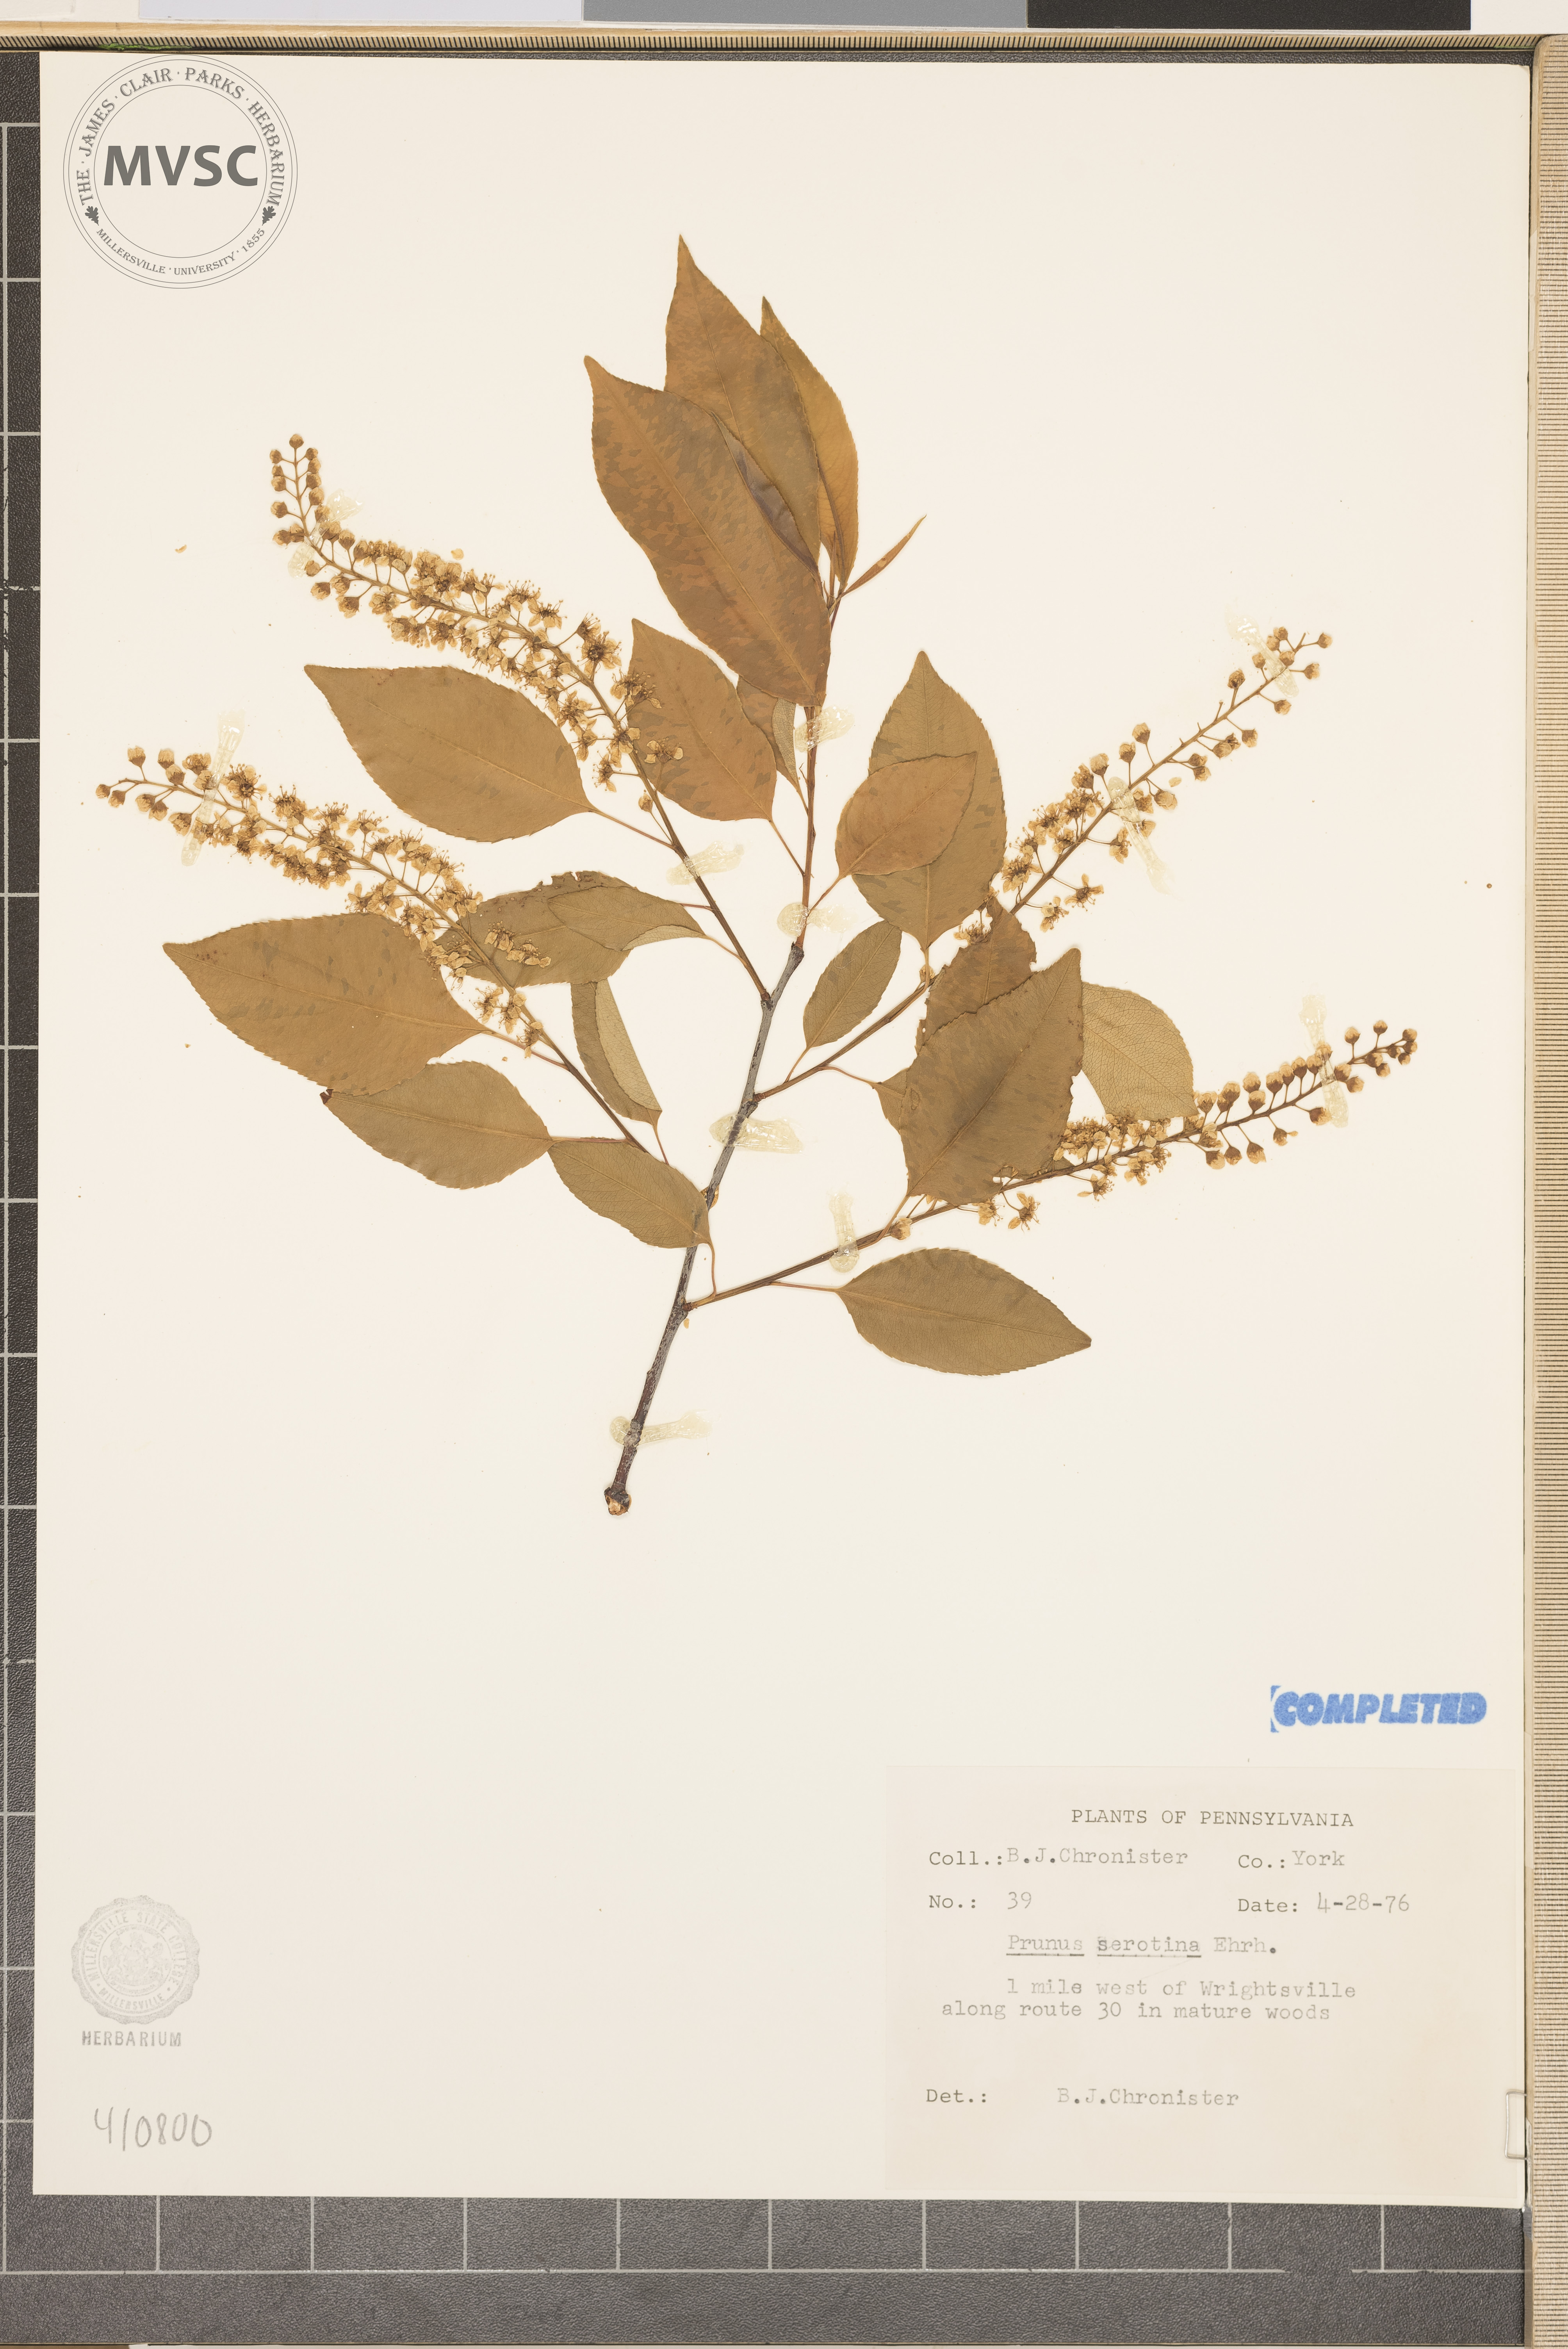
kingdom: Plantae
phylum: Tracheophyta
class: Magnoliopsida
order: Rosales
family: Rosaceae
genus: Prunus
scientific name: Prunus serotina
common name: Black cherry
